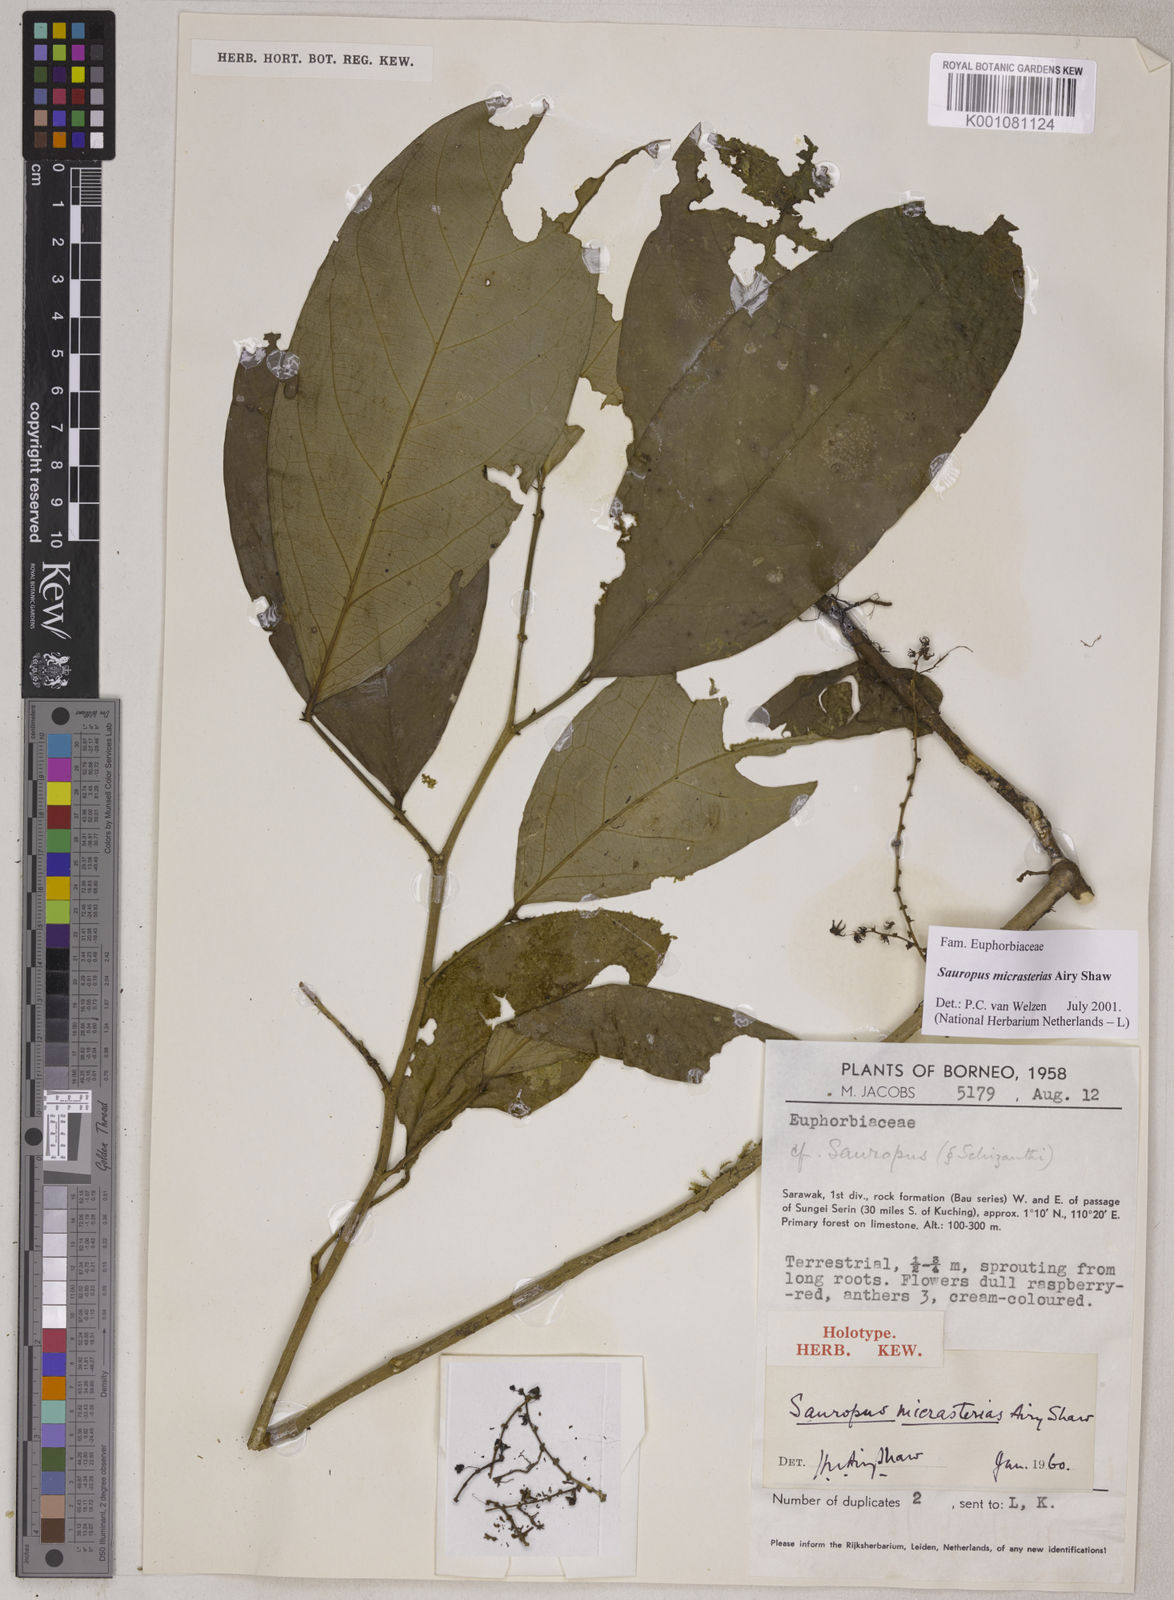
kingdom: Plantae
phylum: Tracheophyta
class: Magnoliopsida
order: Malpighiales
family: Phyllanthaceae
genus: Breynia
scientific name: Breynia micrasterias
